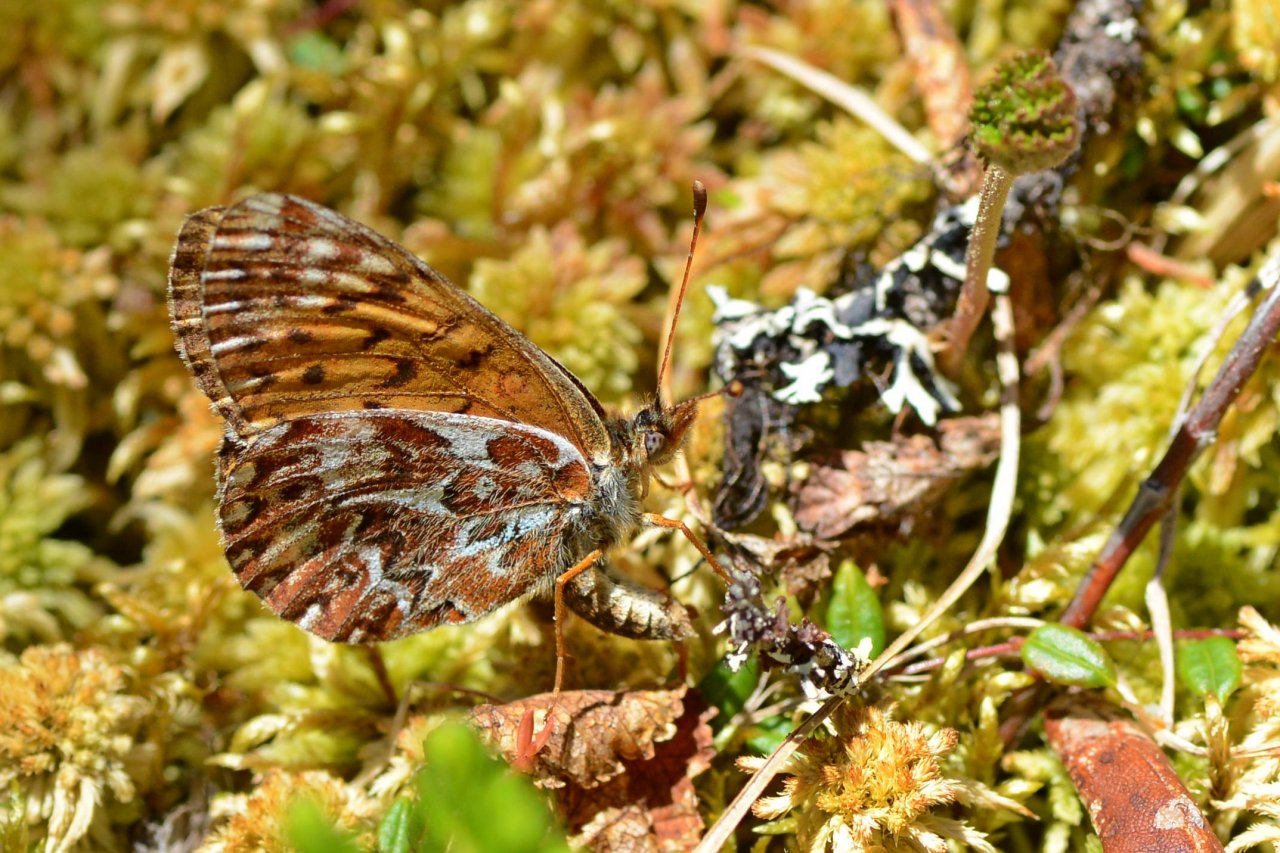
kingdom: Animalia
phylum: Arthropoda
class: Insecta
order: Lepidoptera
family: Nymphalidae
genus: Boloria
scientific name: Boloria freija
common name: Freija Fritillary
